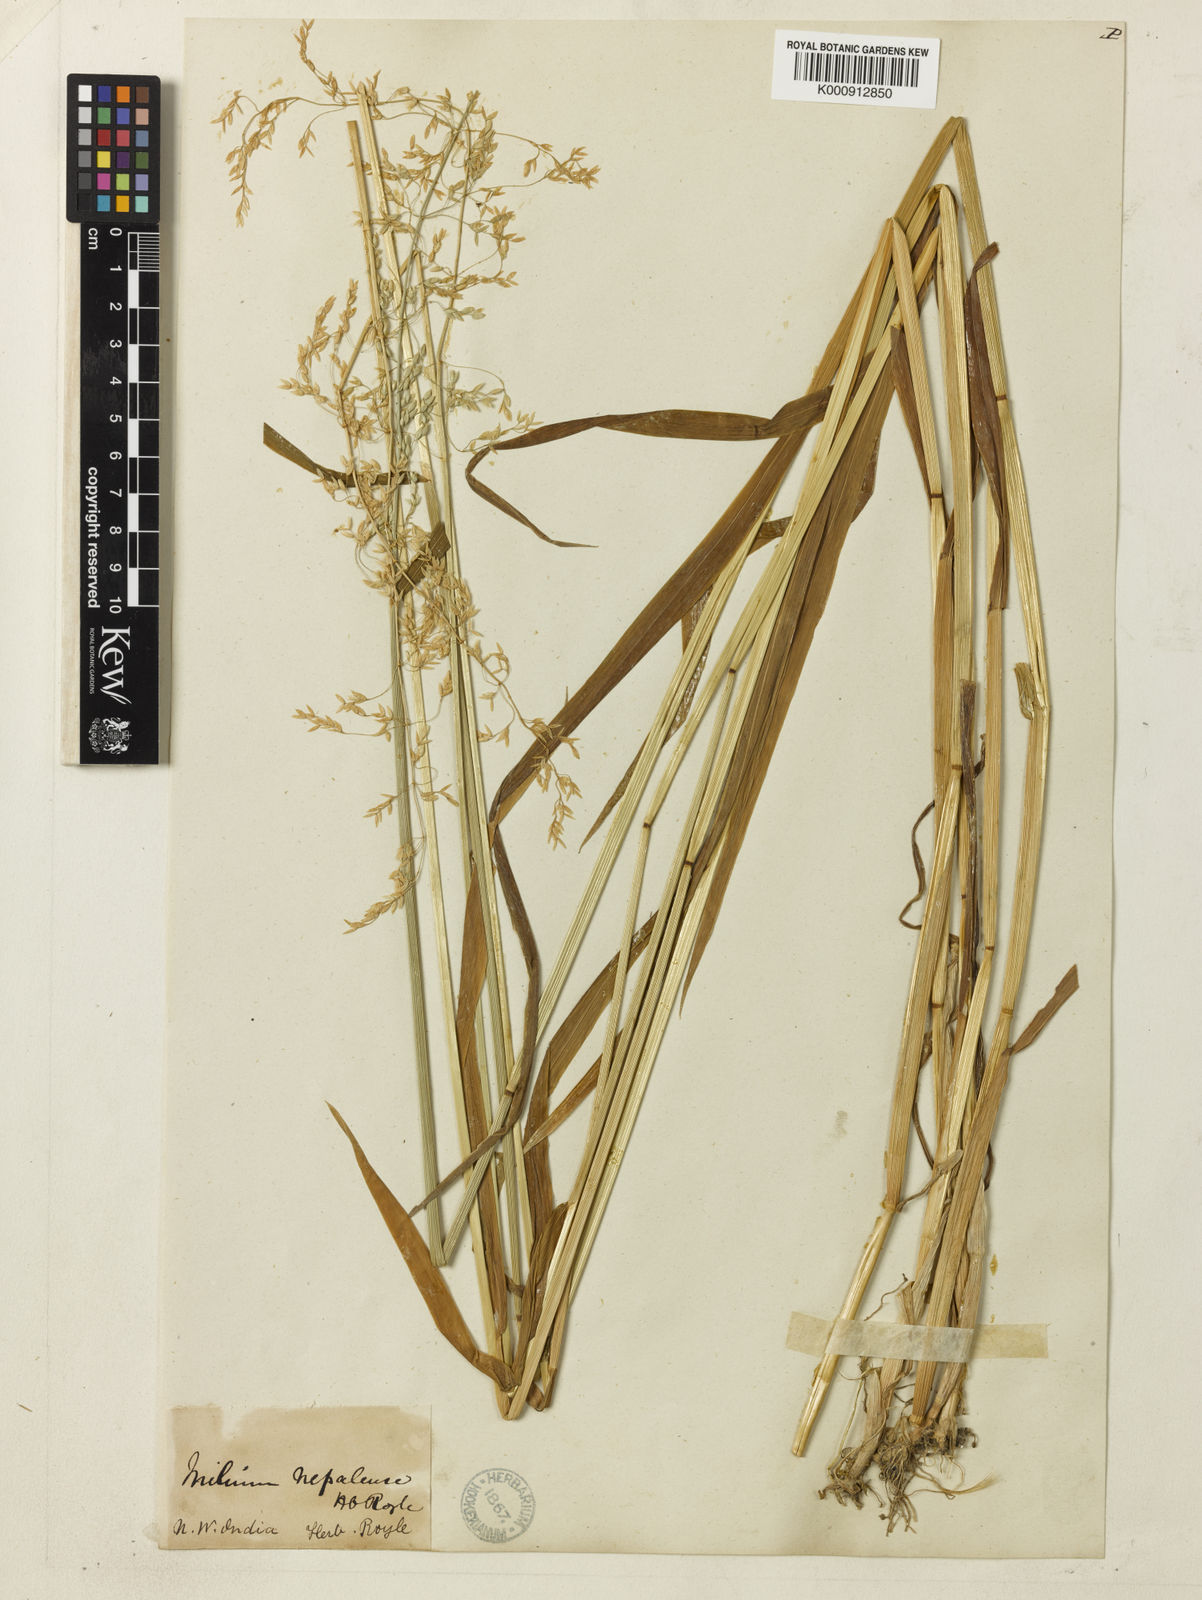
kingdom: Plantae
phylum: Tracheophyta
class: Liliopsida
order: Poales
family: Poaceae
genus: Milium
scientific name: Milium effusum
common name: Wood millet
